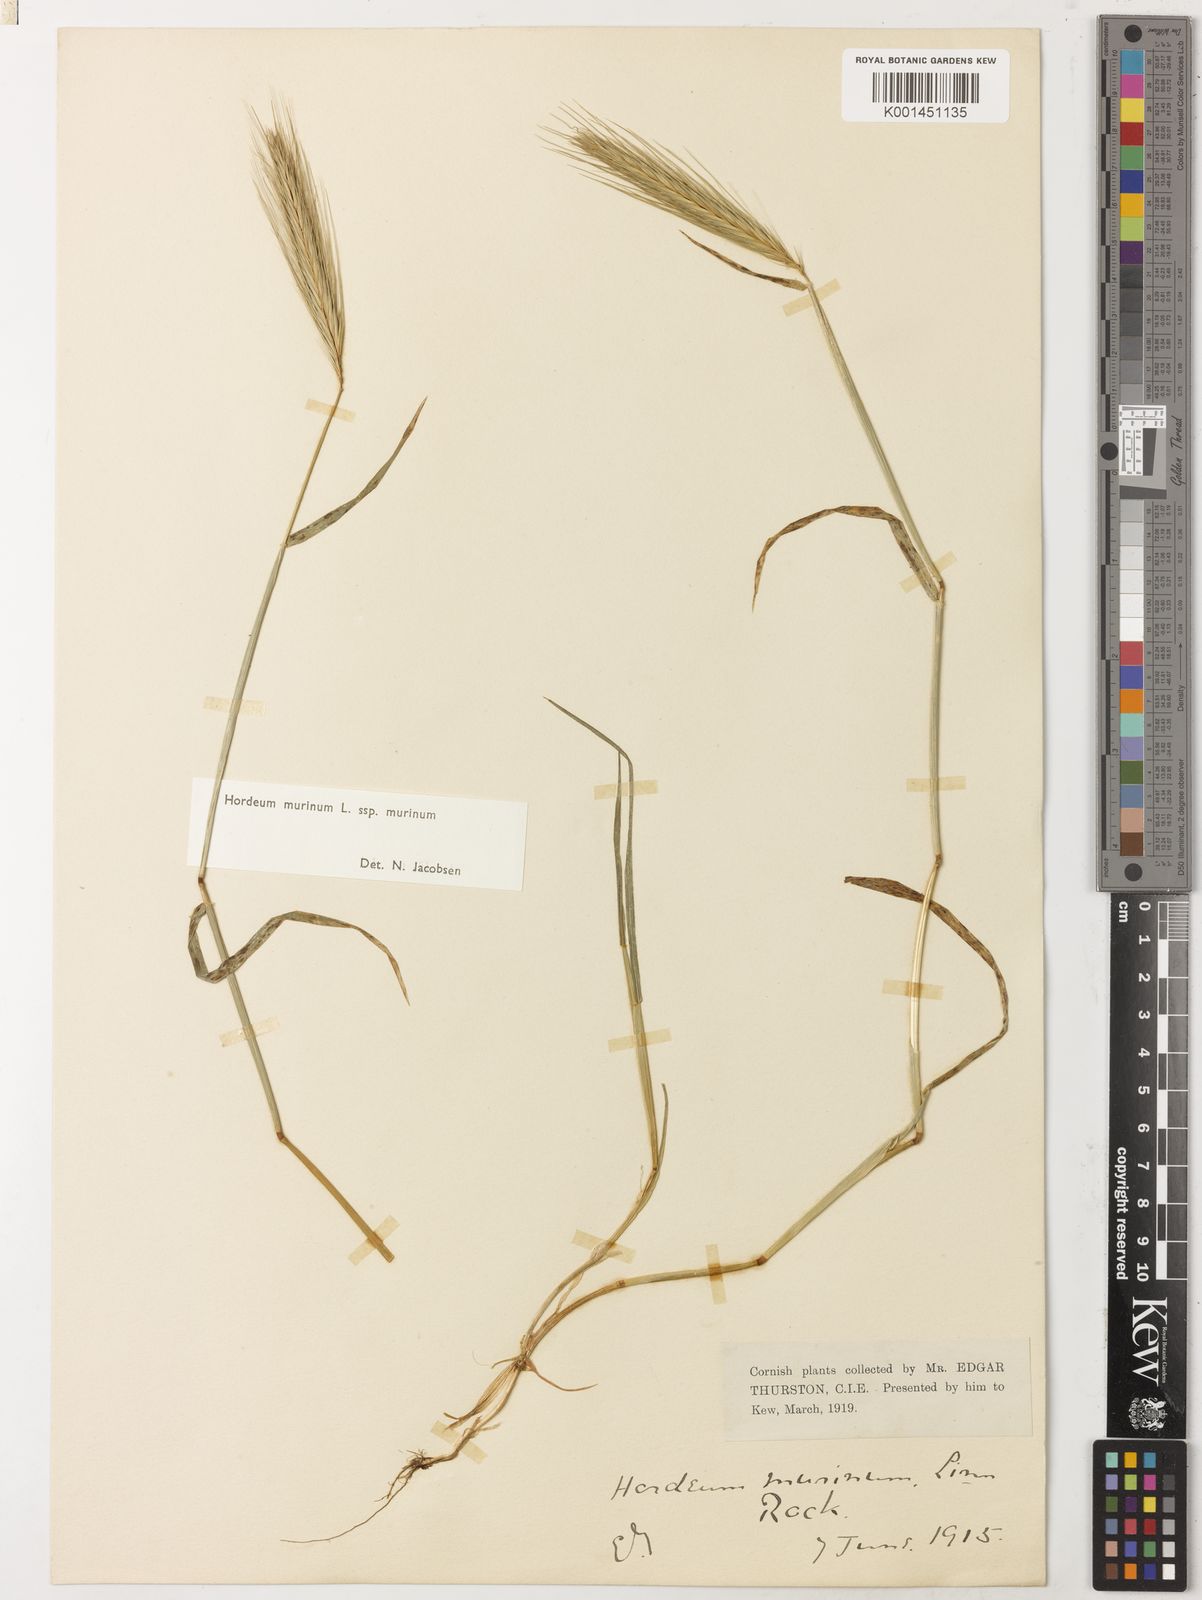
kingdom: Plantae
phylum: Tracheophyta
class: Liliopsida
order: Poales
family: Poaceae
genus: Hordeum
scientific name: Hordeum murinum
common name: Wall barley
